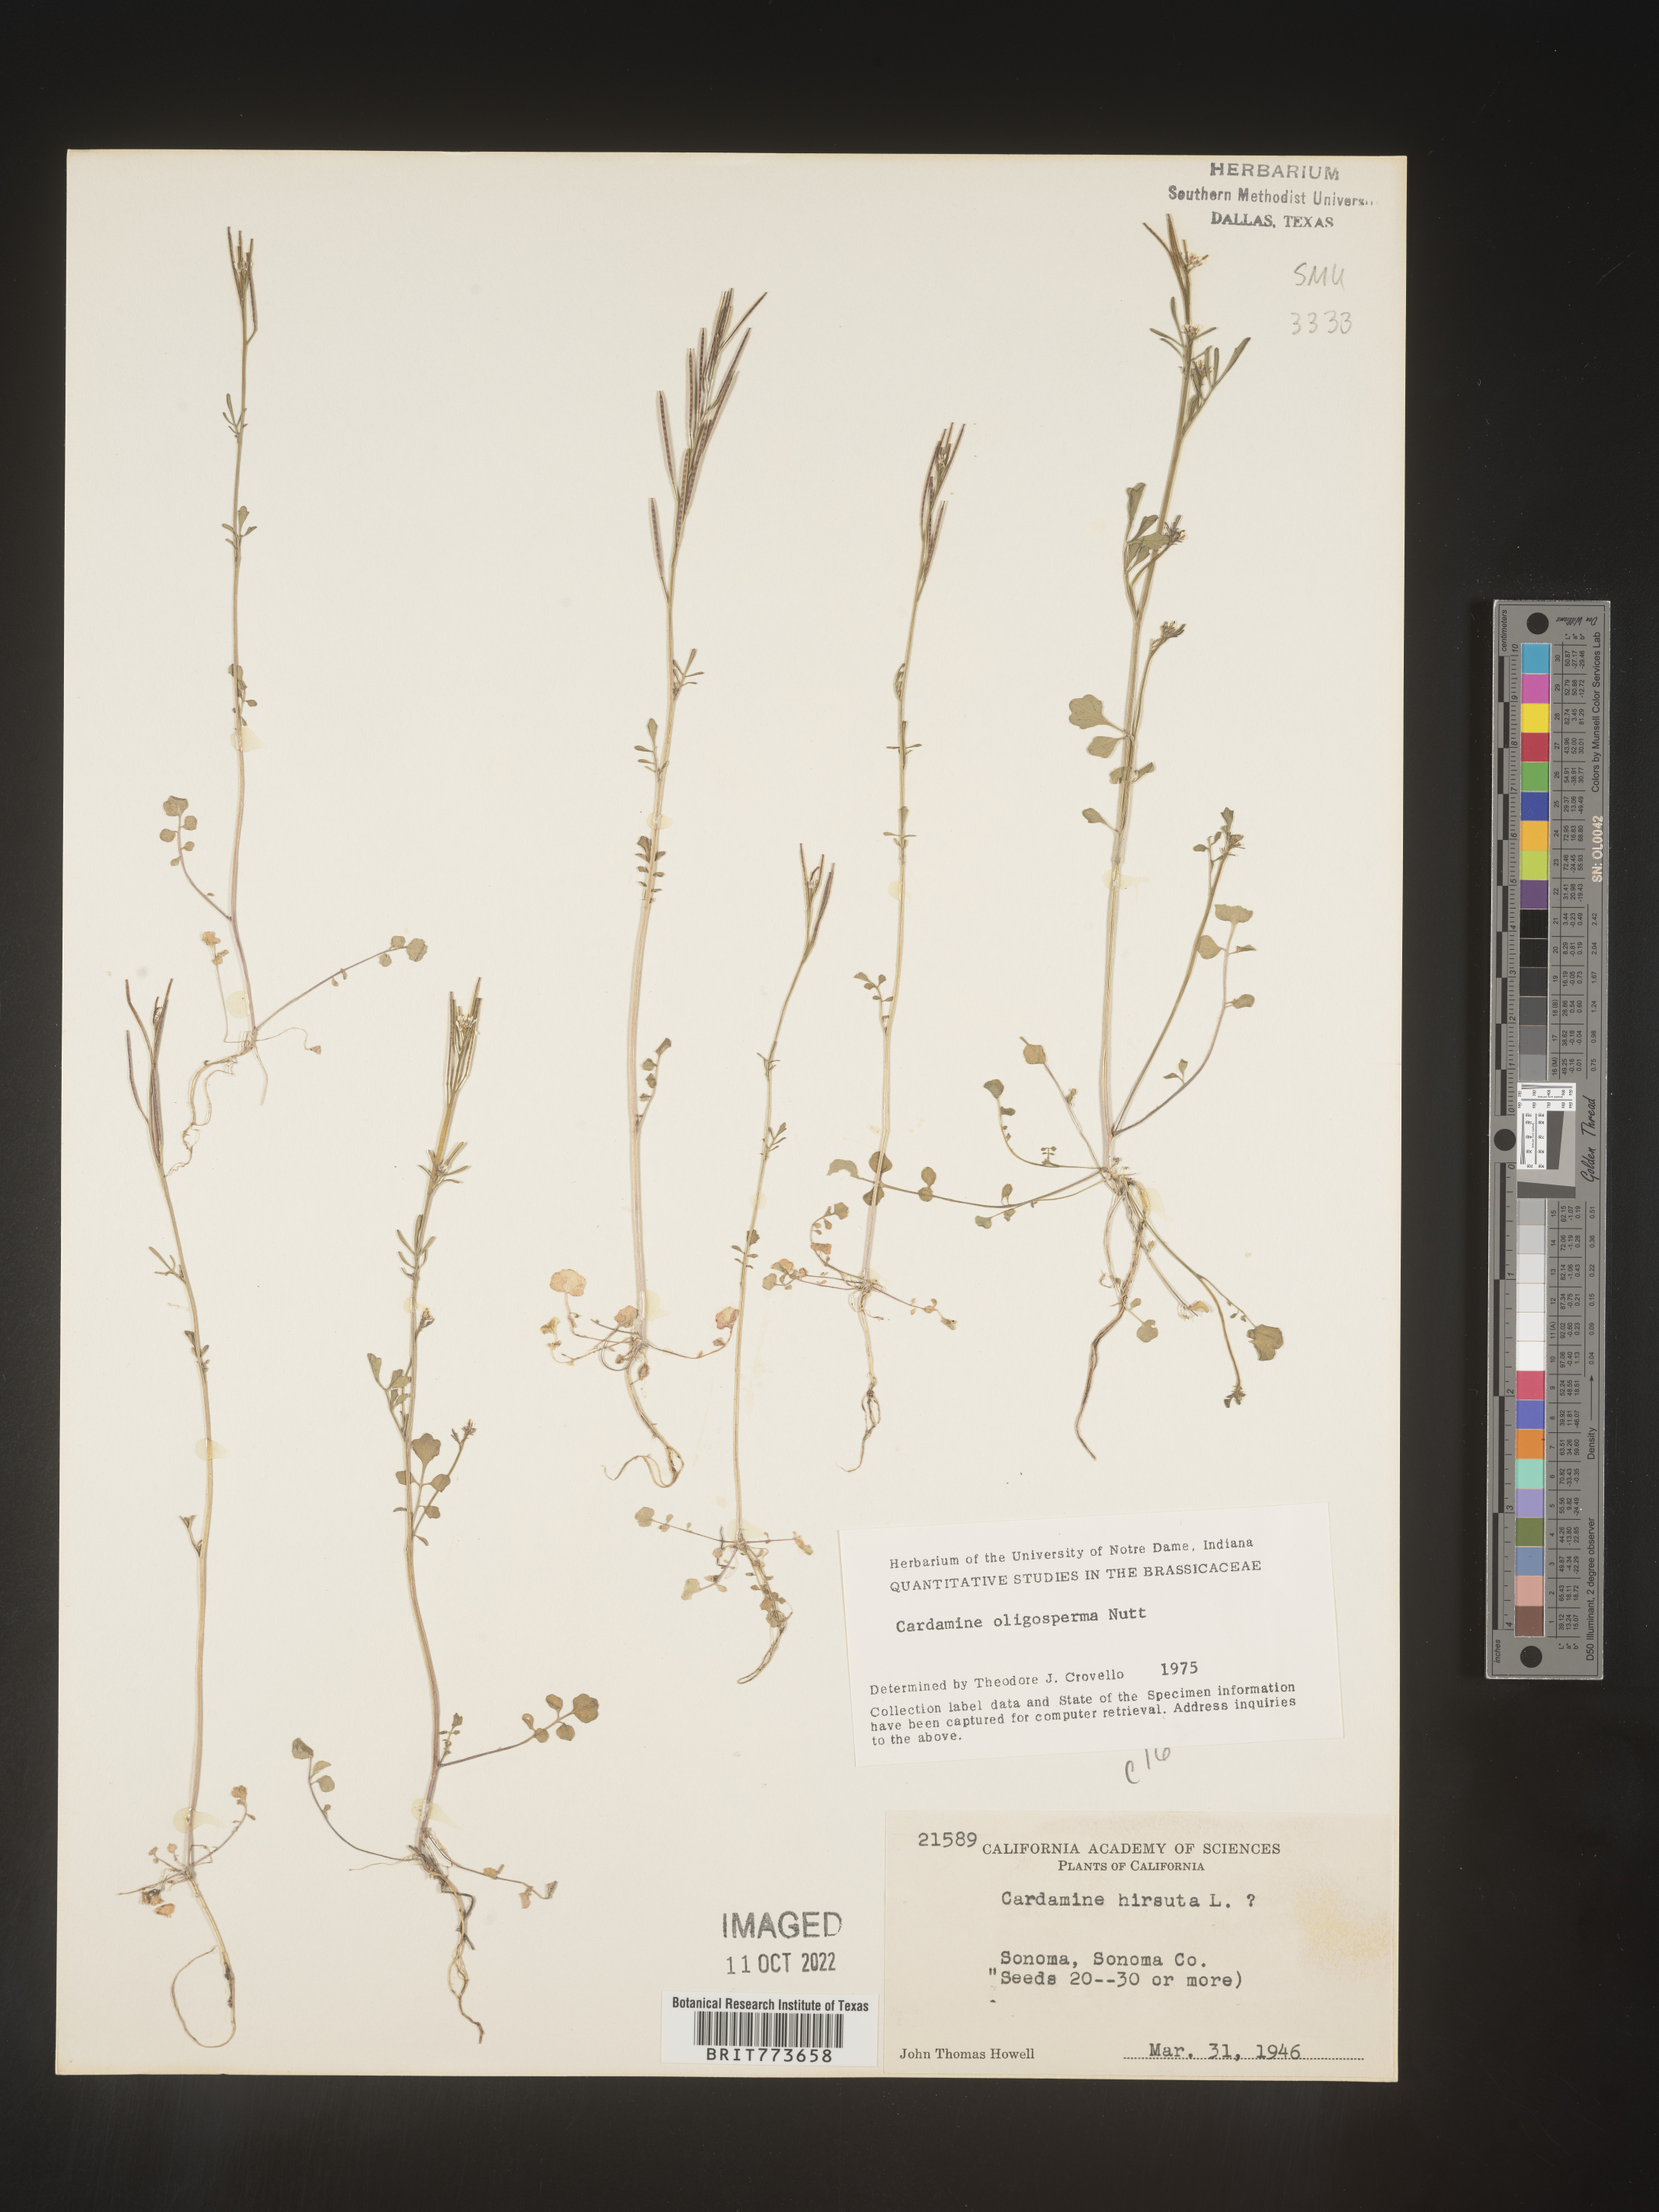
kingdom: Plantae
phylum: Tracheophyta
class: Magnoliopsida
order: Brassicales
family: Brassicaceae
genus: Cardamine
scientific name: Cardamine
